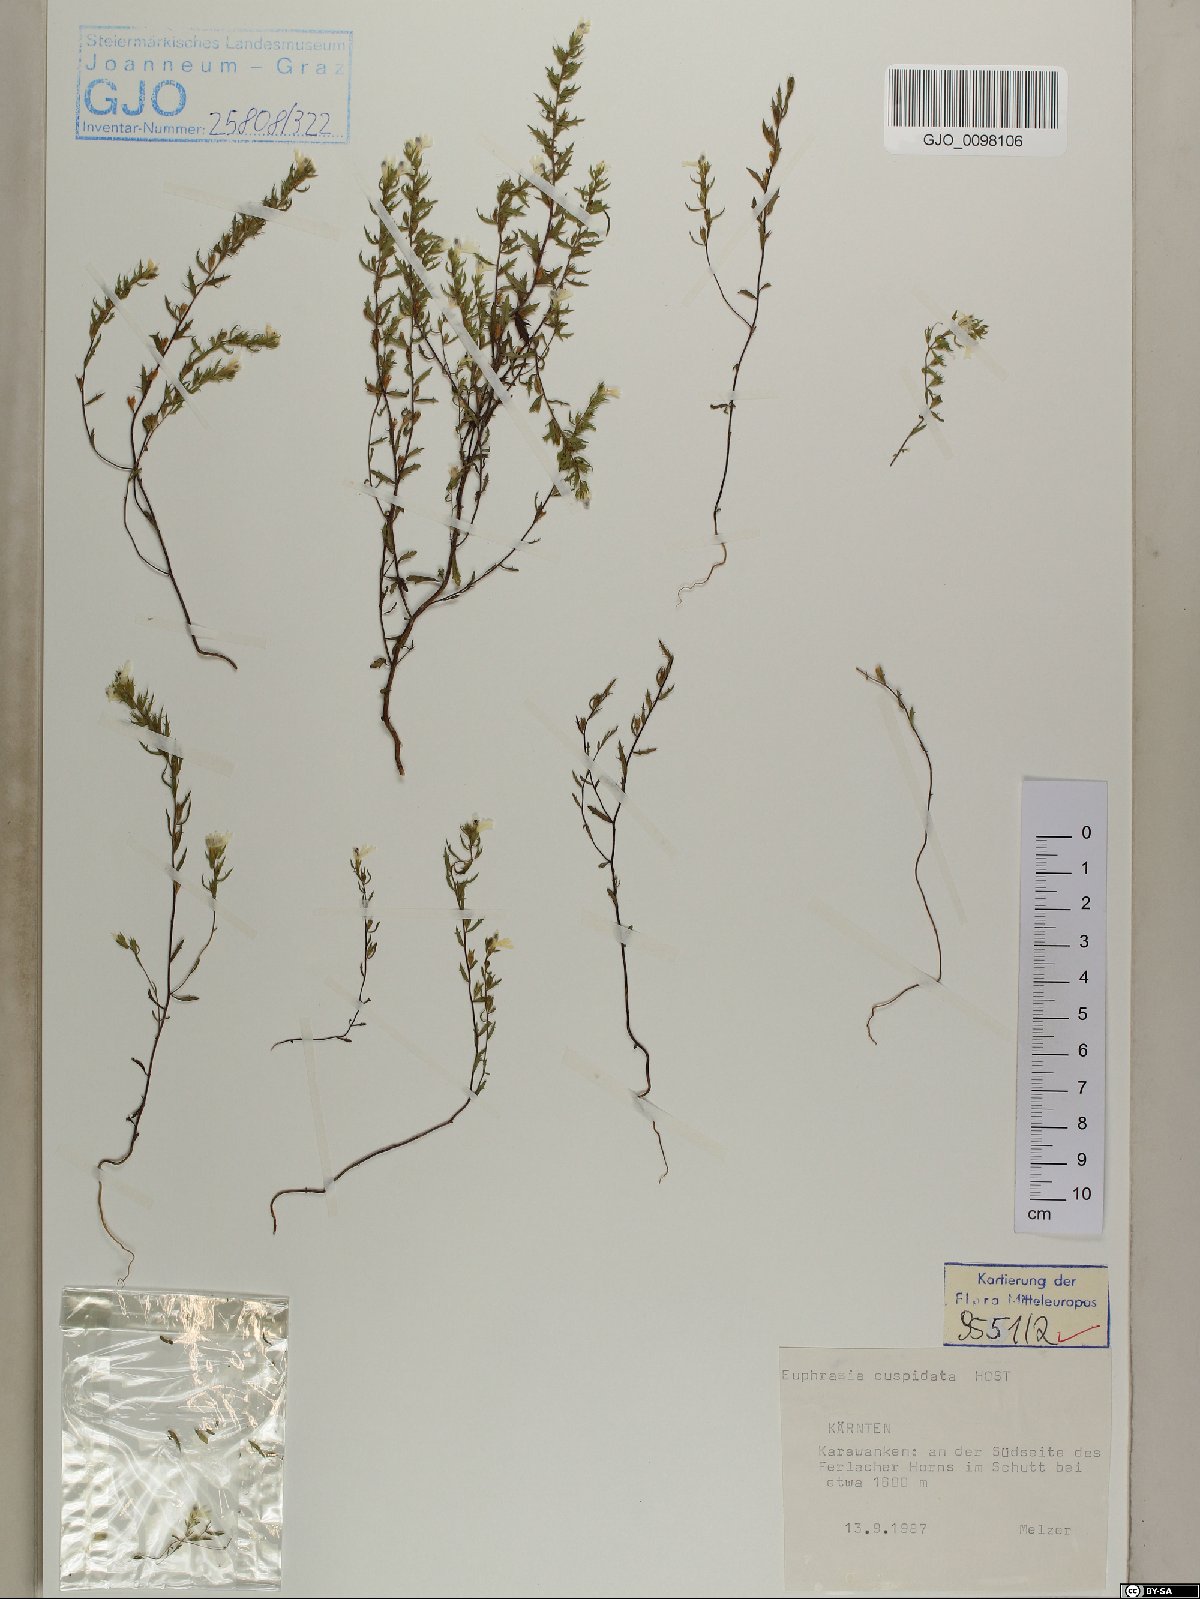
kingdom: Plantae
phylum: Tracheophyta
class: Magnoliopsida
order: Lamiales
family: Orobanchaceae
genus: Euphrasia
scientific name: Euphrasia cuspidata
